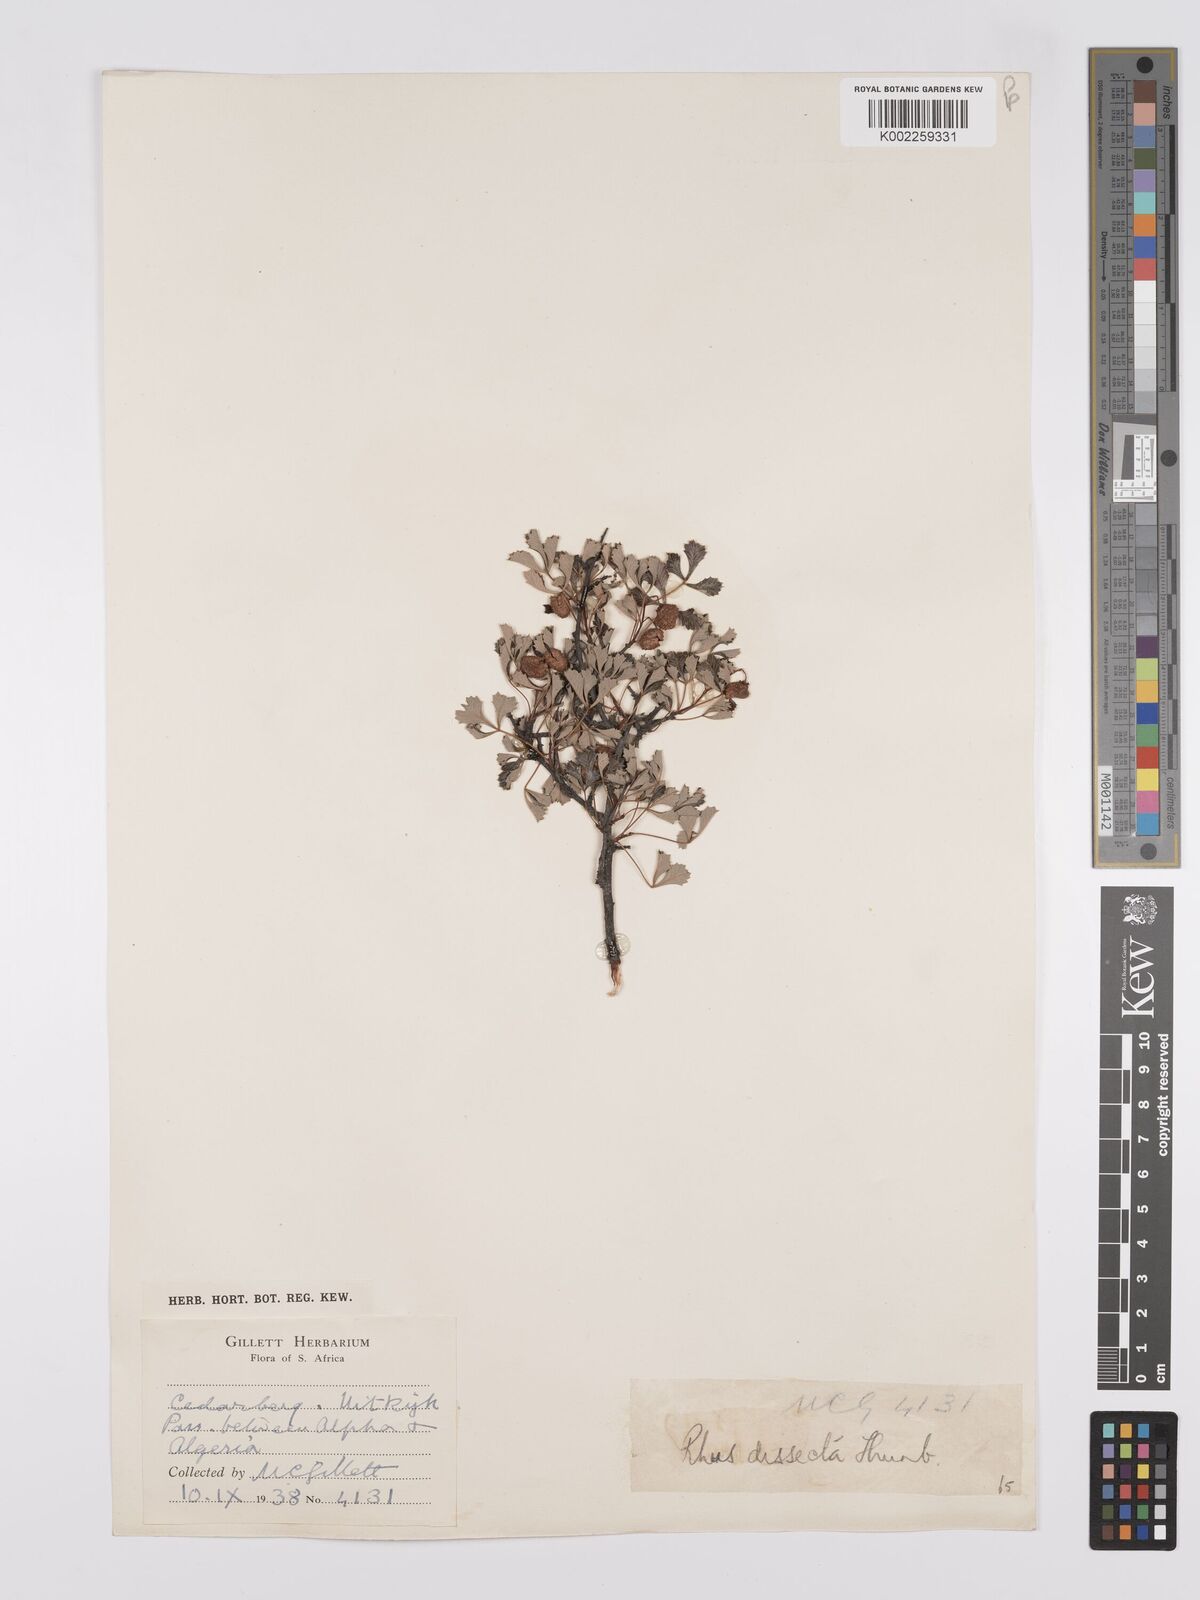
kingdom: Plantae
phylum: Tracheophyta
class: Magnoliopsida
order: Sapindales
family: Anacardiaceae
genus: Searsia
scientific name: Searsia dissecta
